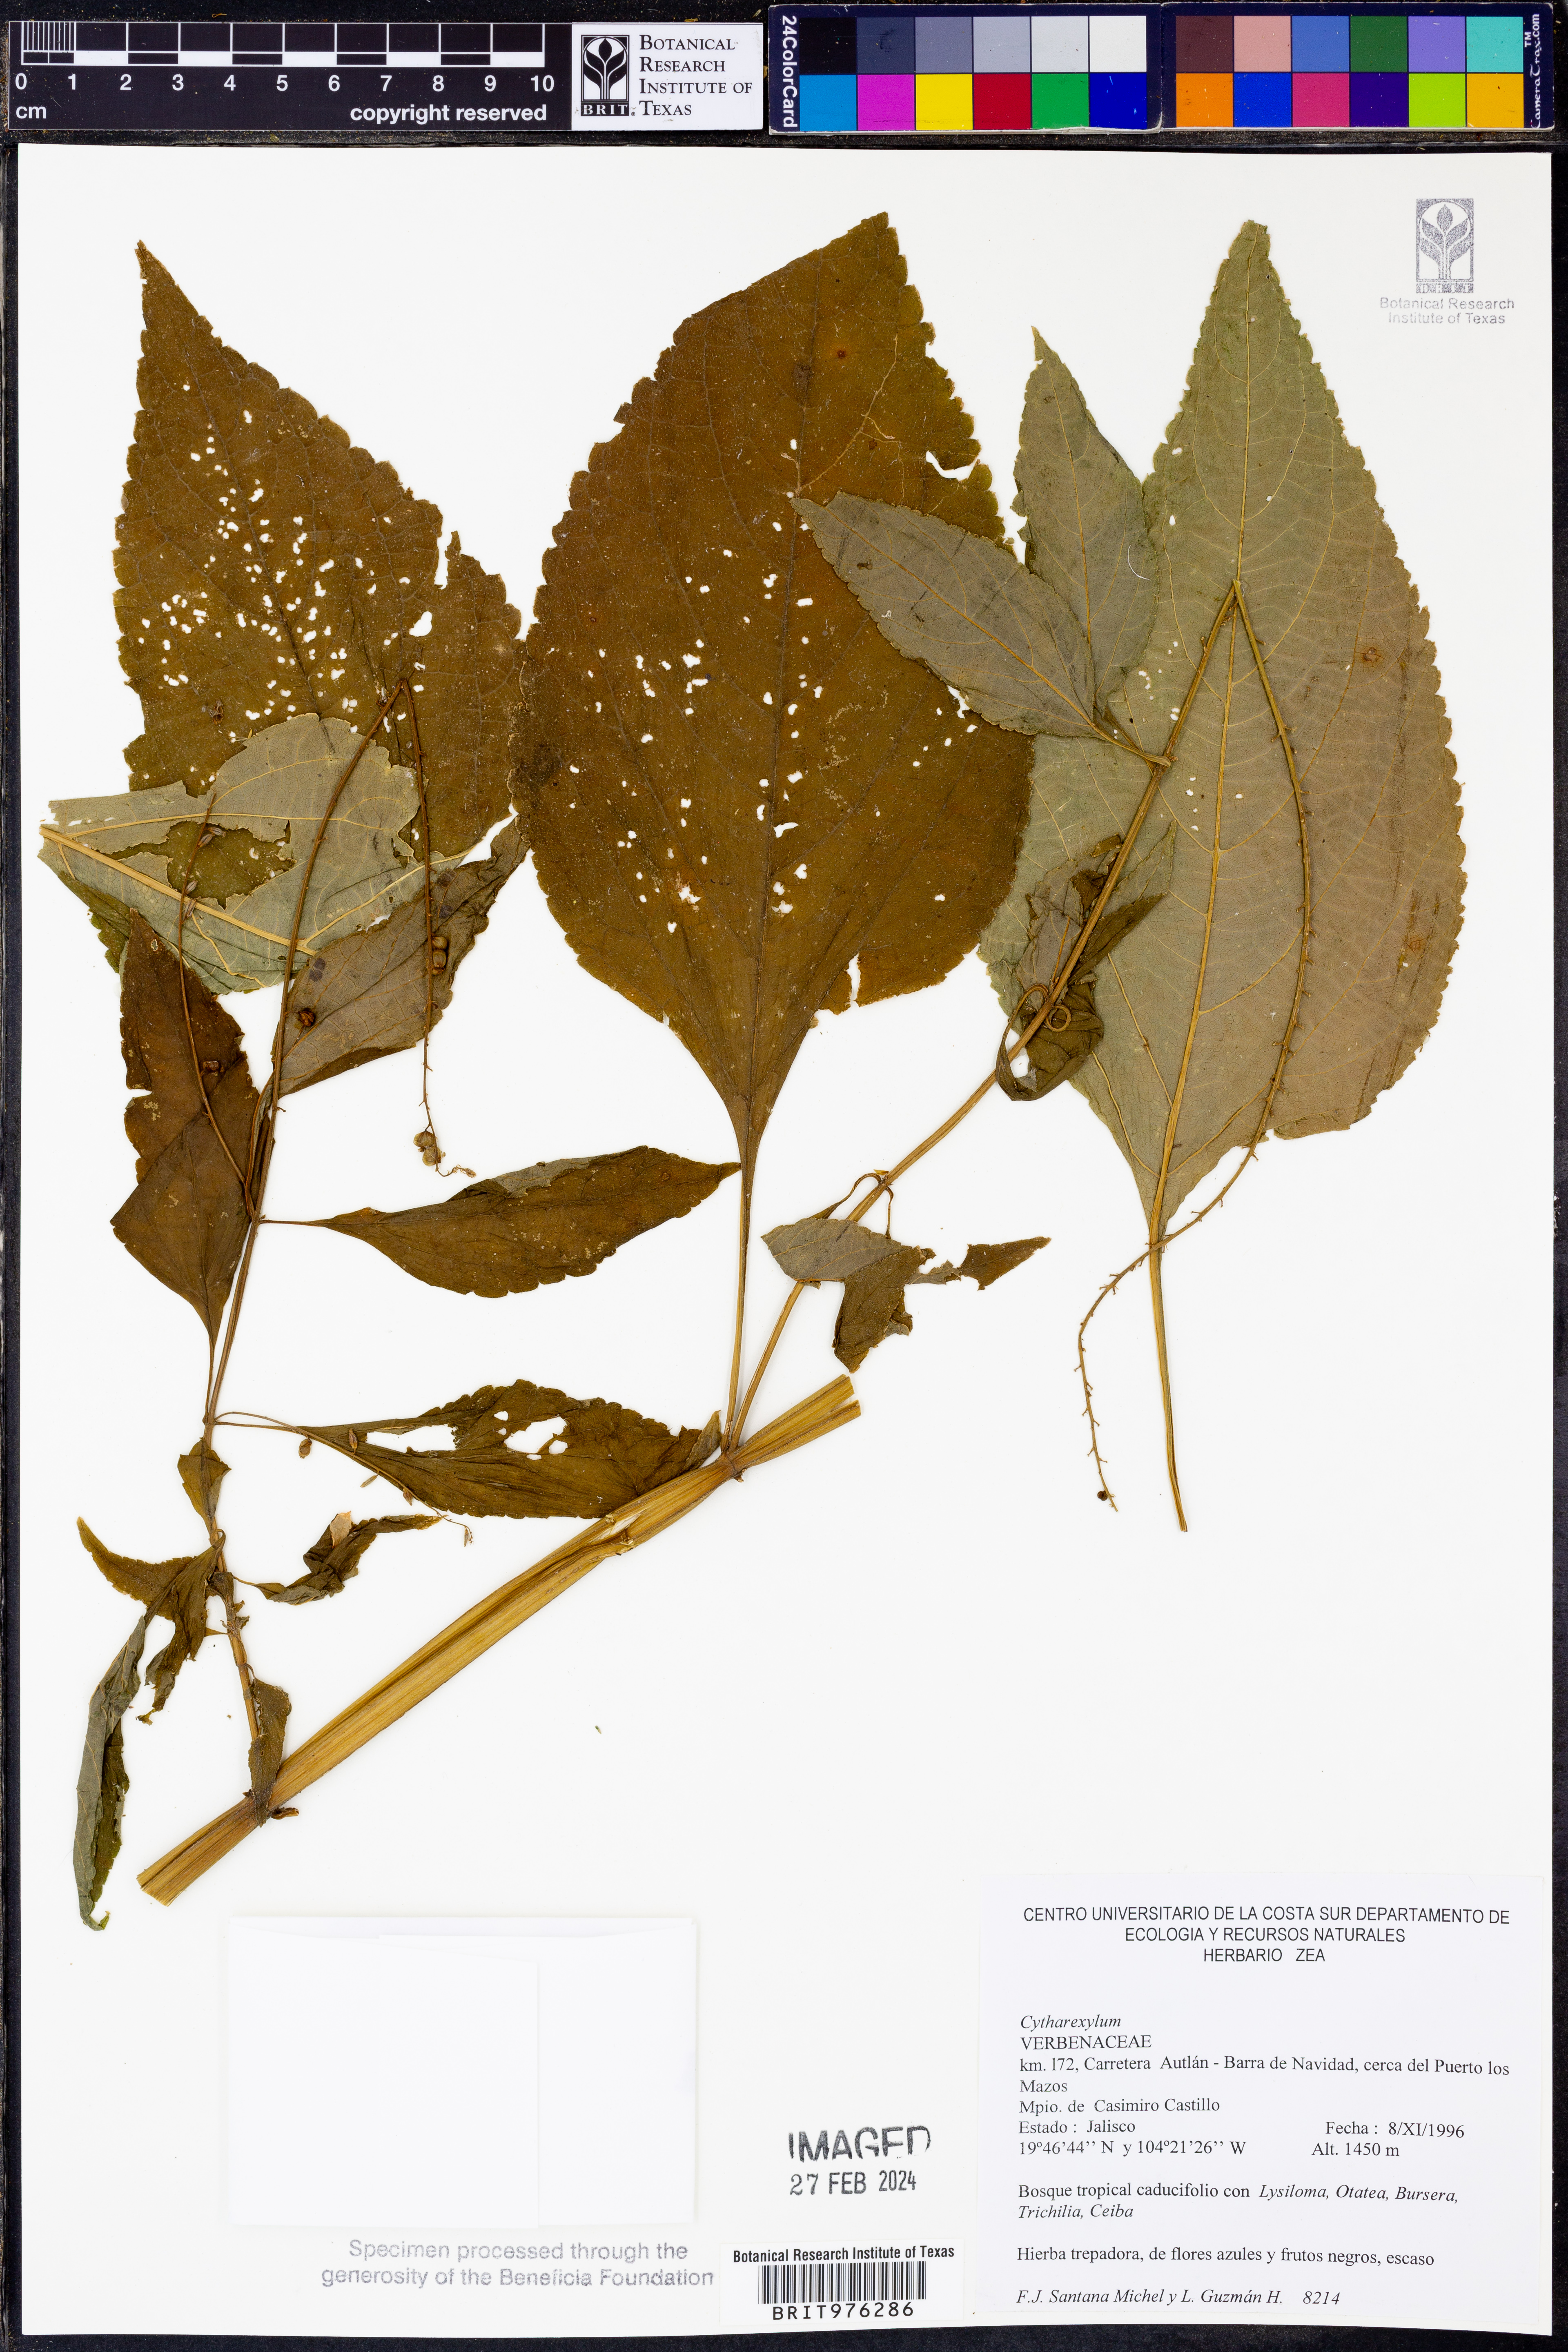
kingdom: Plantae
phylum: Tracheophyta
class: Magnoliopsida
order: Lamiales
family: Verbenaceae
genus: Citharexylum
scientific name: Citharexylum
